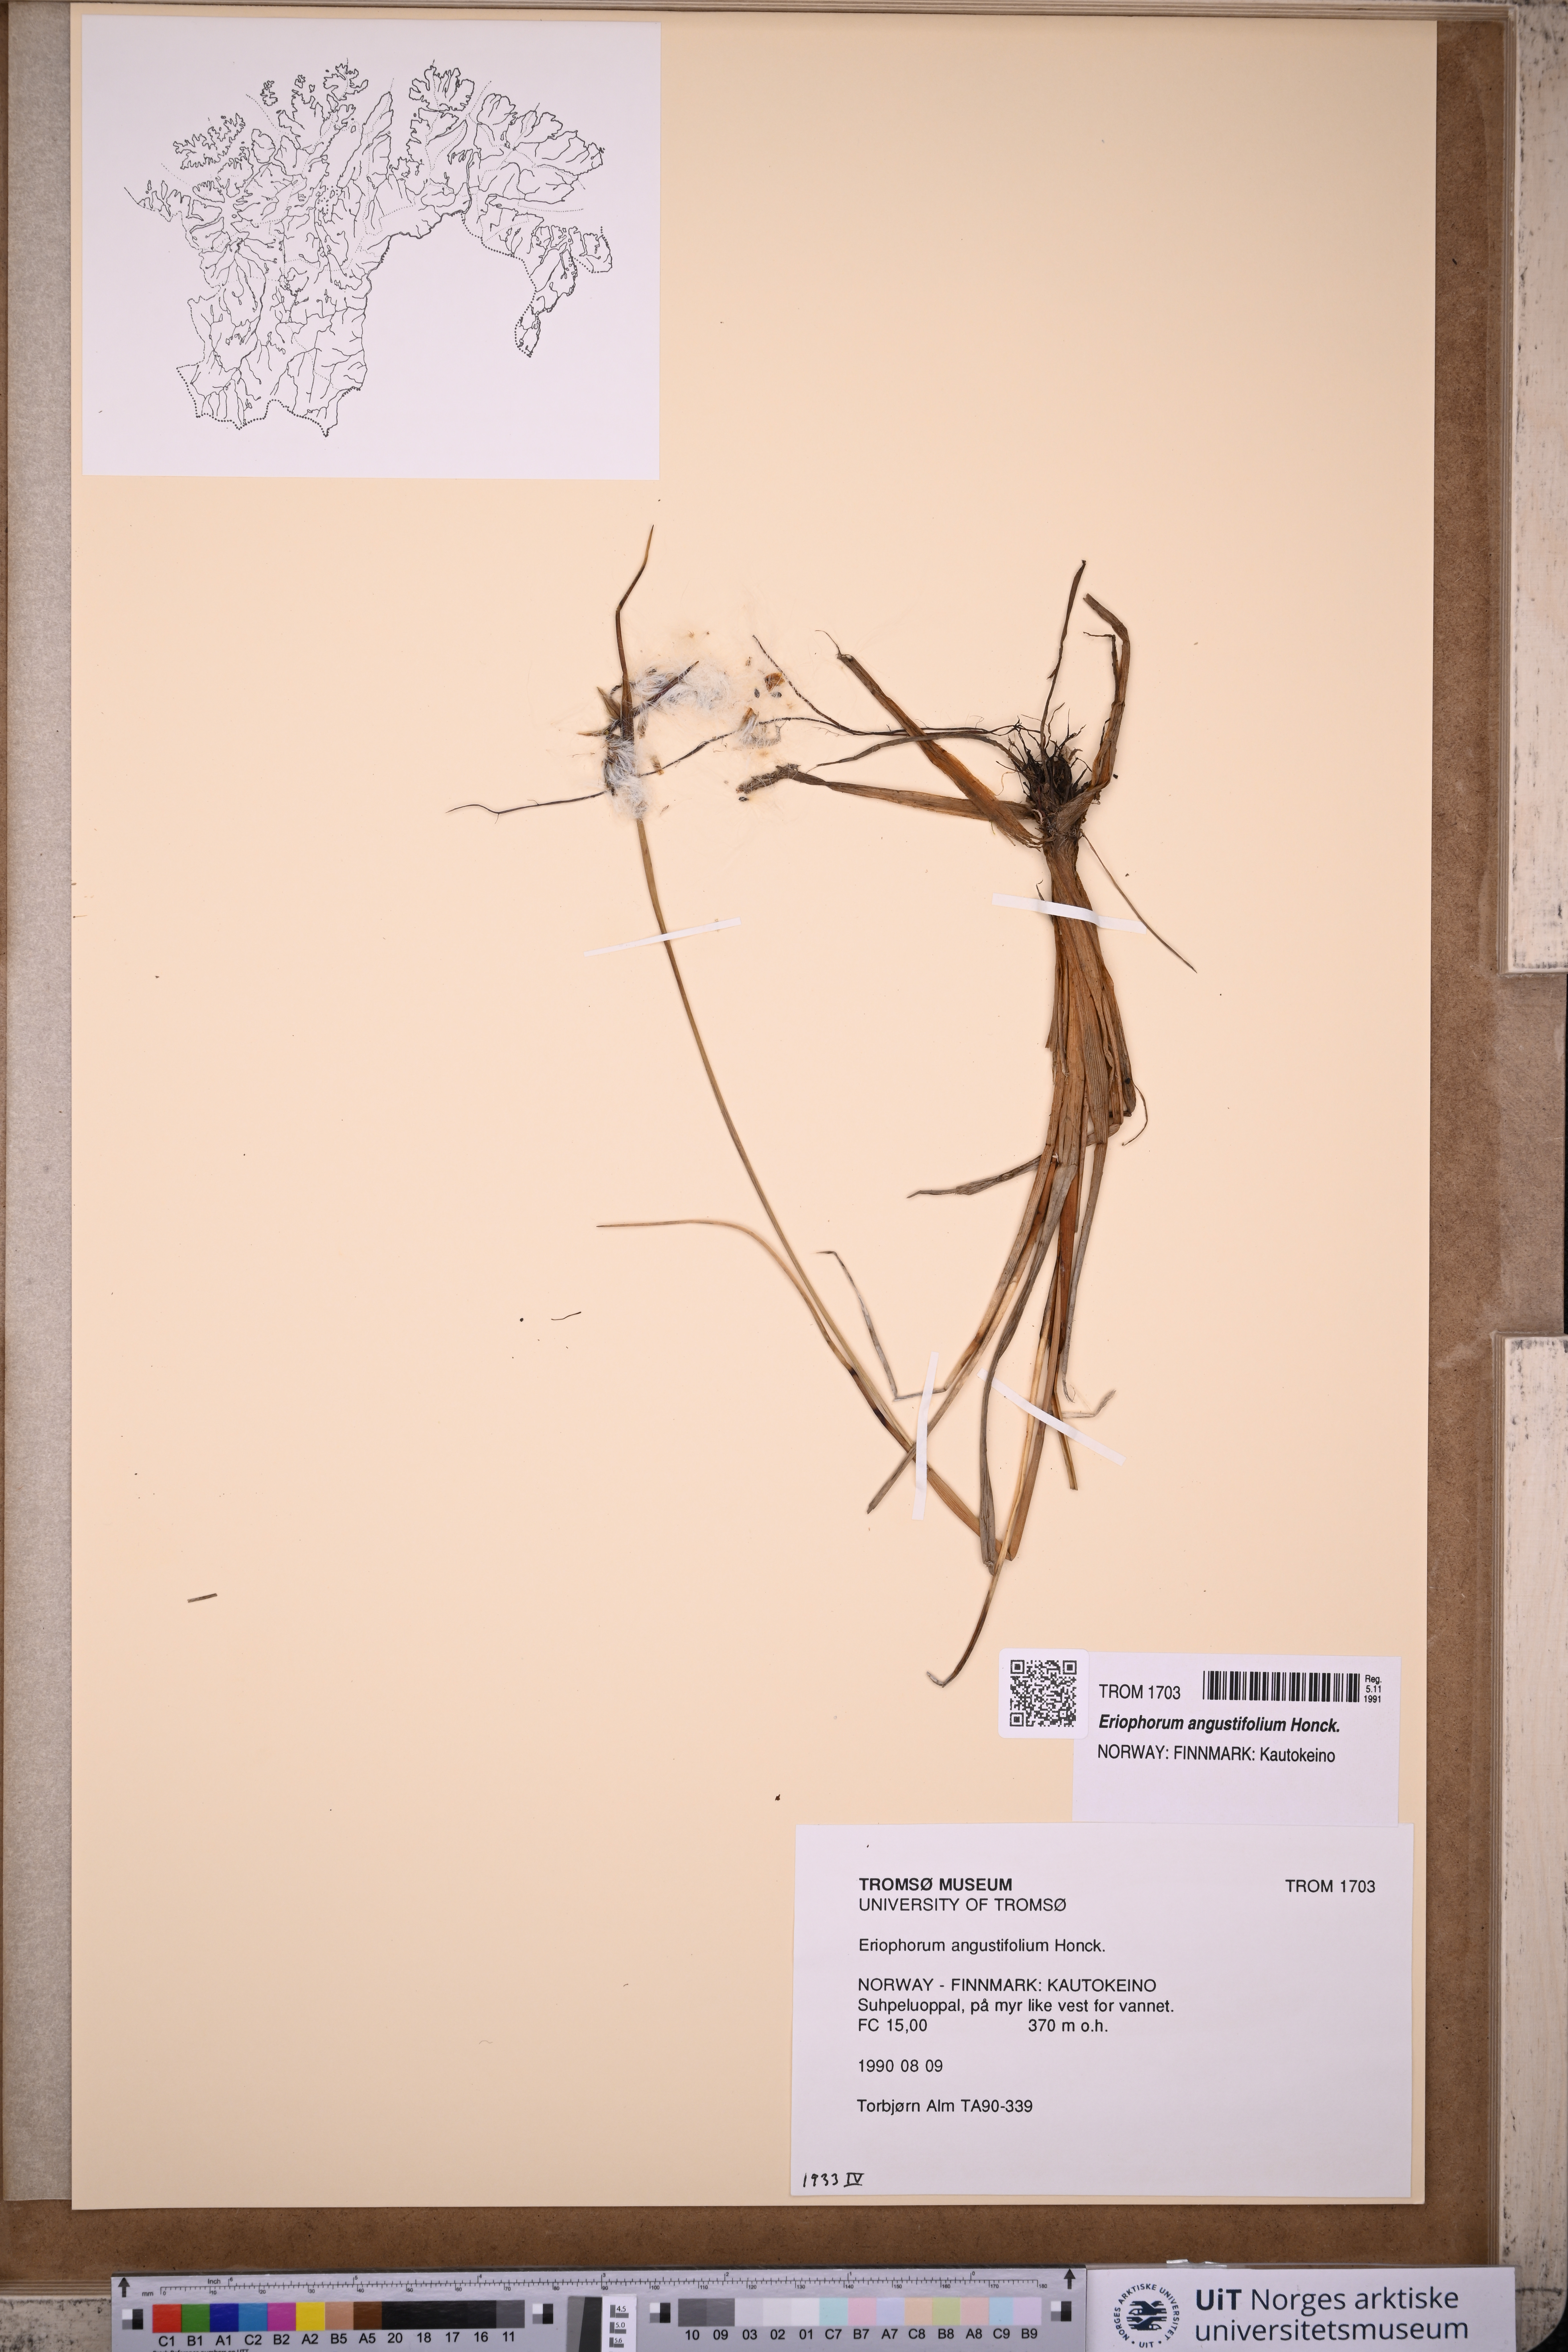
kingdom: Plantae
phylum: Tracheophyta
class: Liliopsida
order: Poales
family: Cyperaceae
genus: Eriophorum
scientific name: Eriophorum angustifolium
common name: Common cottongrass
